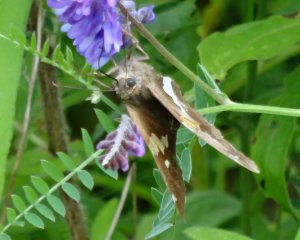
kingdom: Animalia
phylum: Arthropoda
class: Insecta
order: Lepidoptera
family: Hesperiidae
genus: Epargyreus
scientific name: Epargyreus clarus
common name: Silver-spotted Skipper
